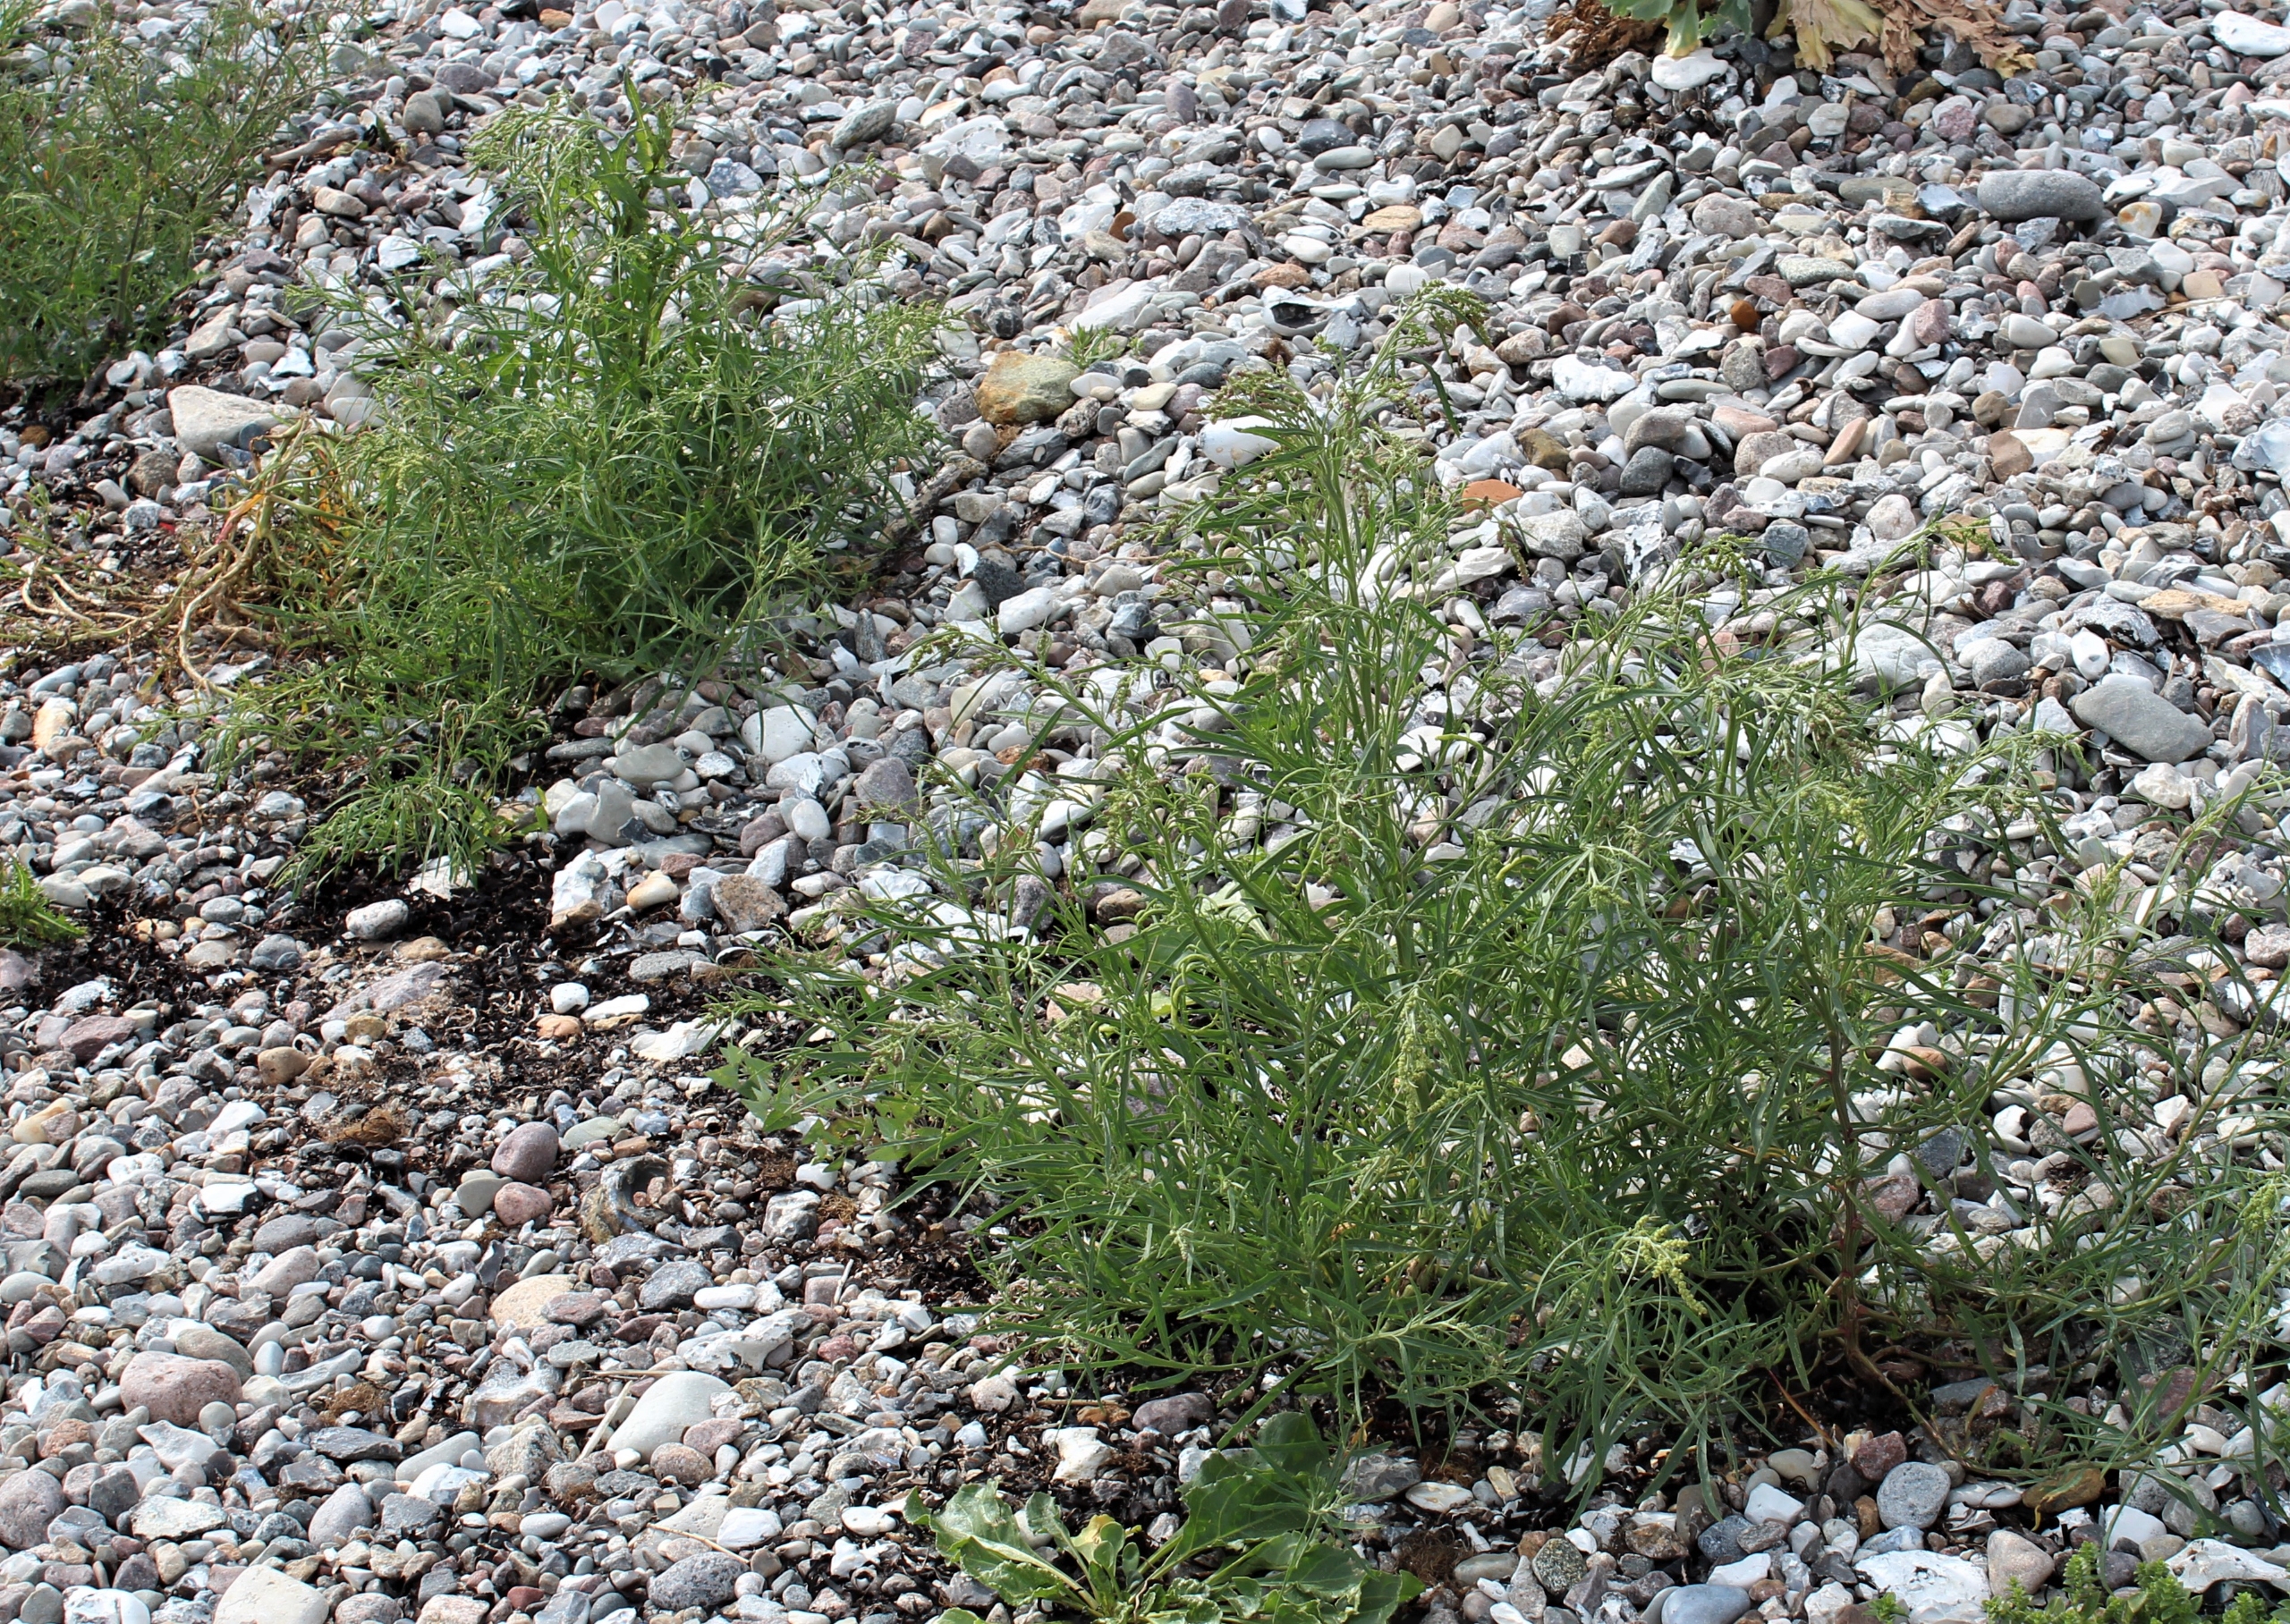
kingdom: Plantae
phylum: Tracheophyta
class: Magnoliopsida
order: Caryophyllales
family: Amaranthaceae
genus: Atriplex
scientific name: Atriplex littoralis
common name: Strand-mælde
